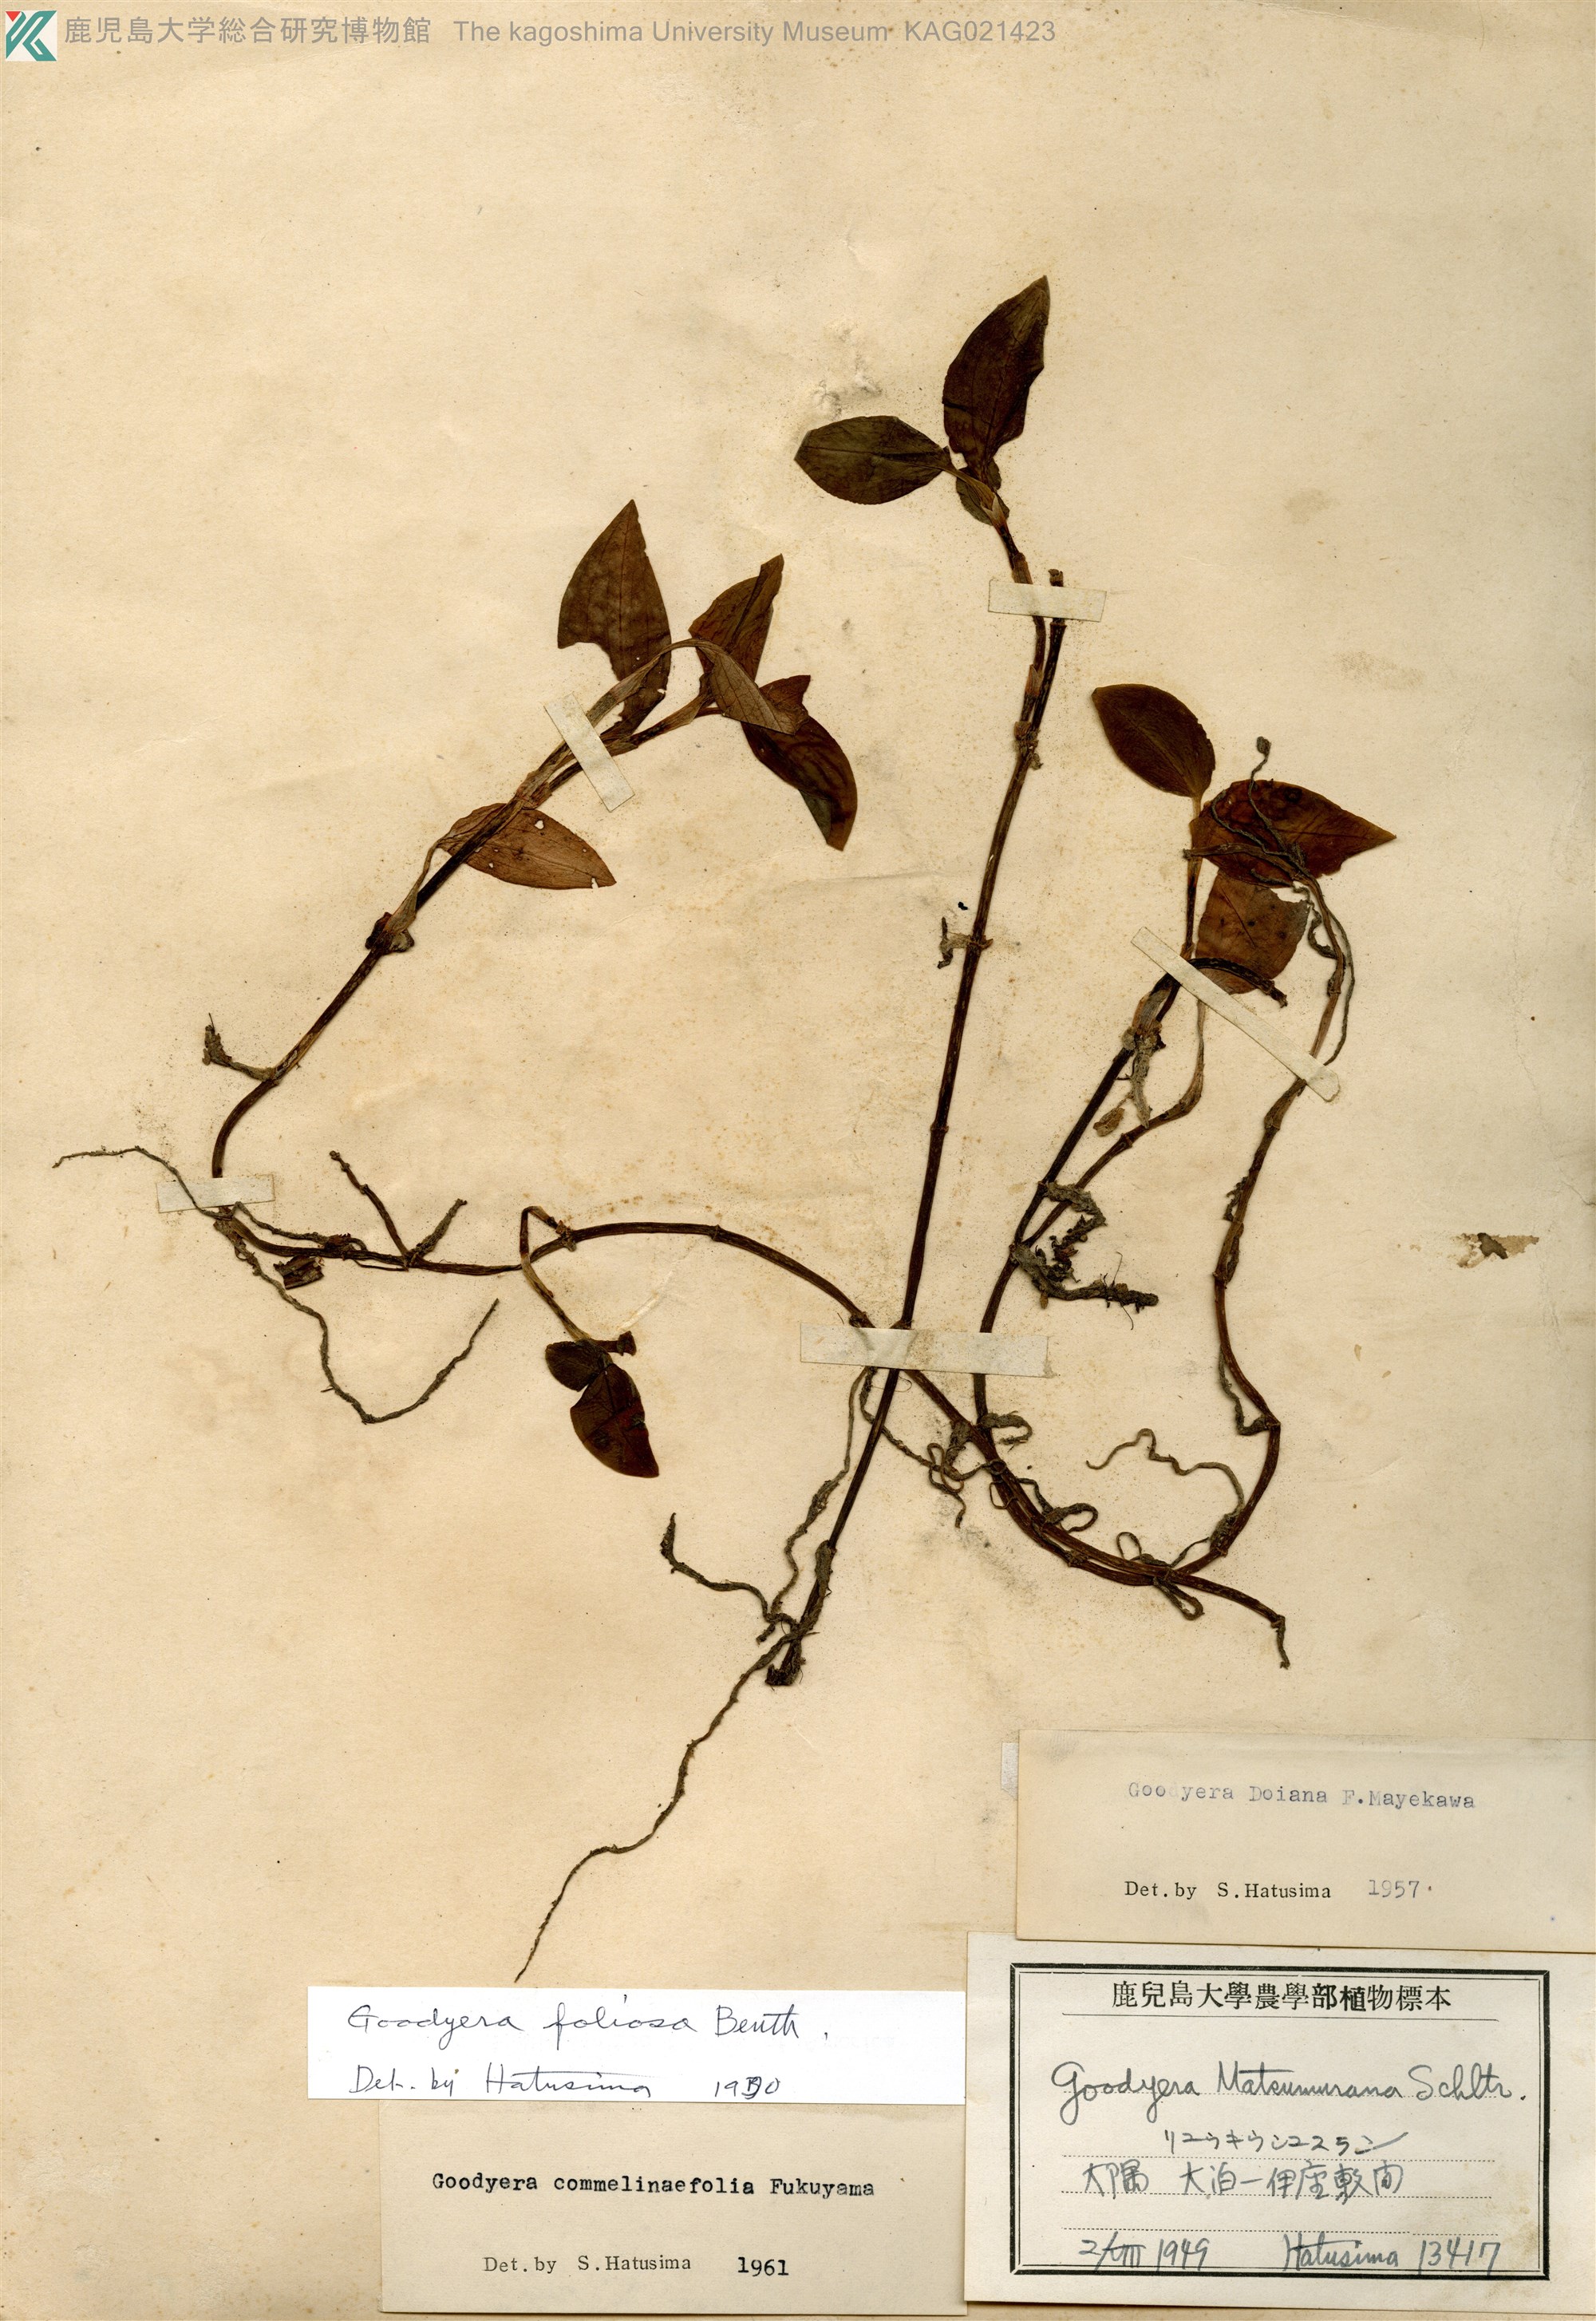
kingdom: Plantae
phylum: Tracheophyta
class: Liliopsida
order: Asparagales
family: Orchidaceae
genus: Goodyera
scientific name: Goodyera foliosa
